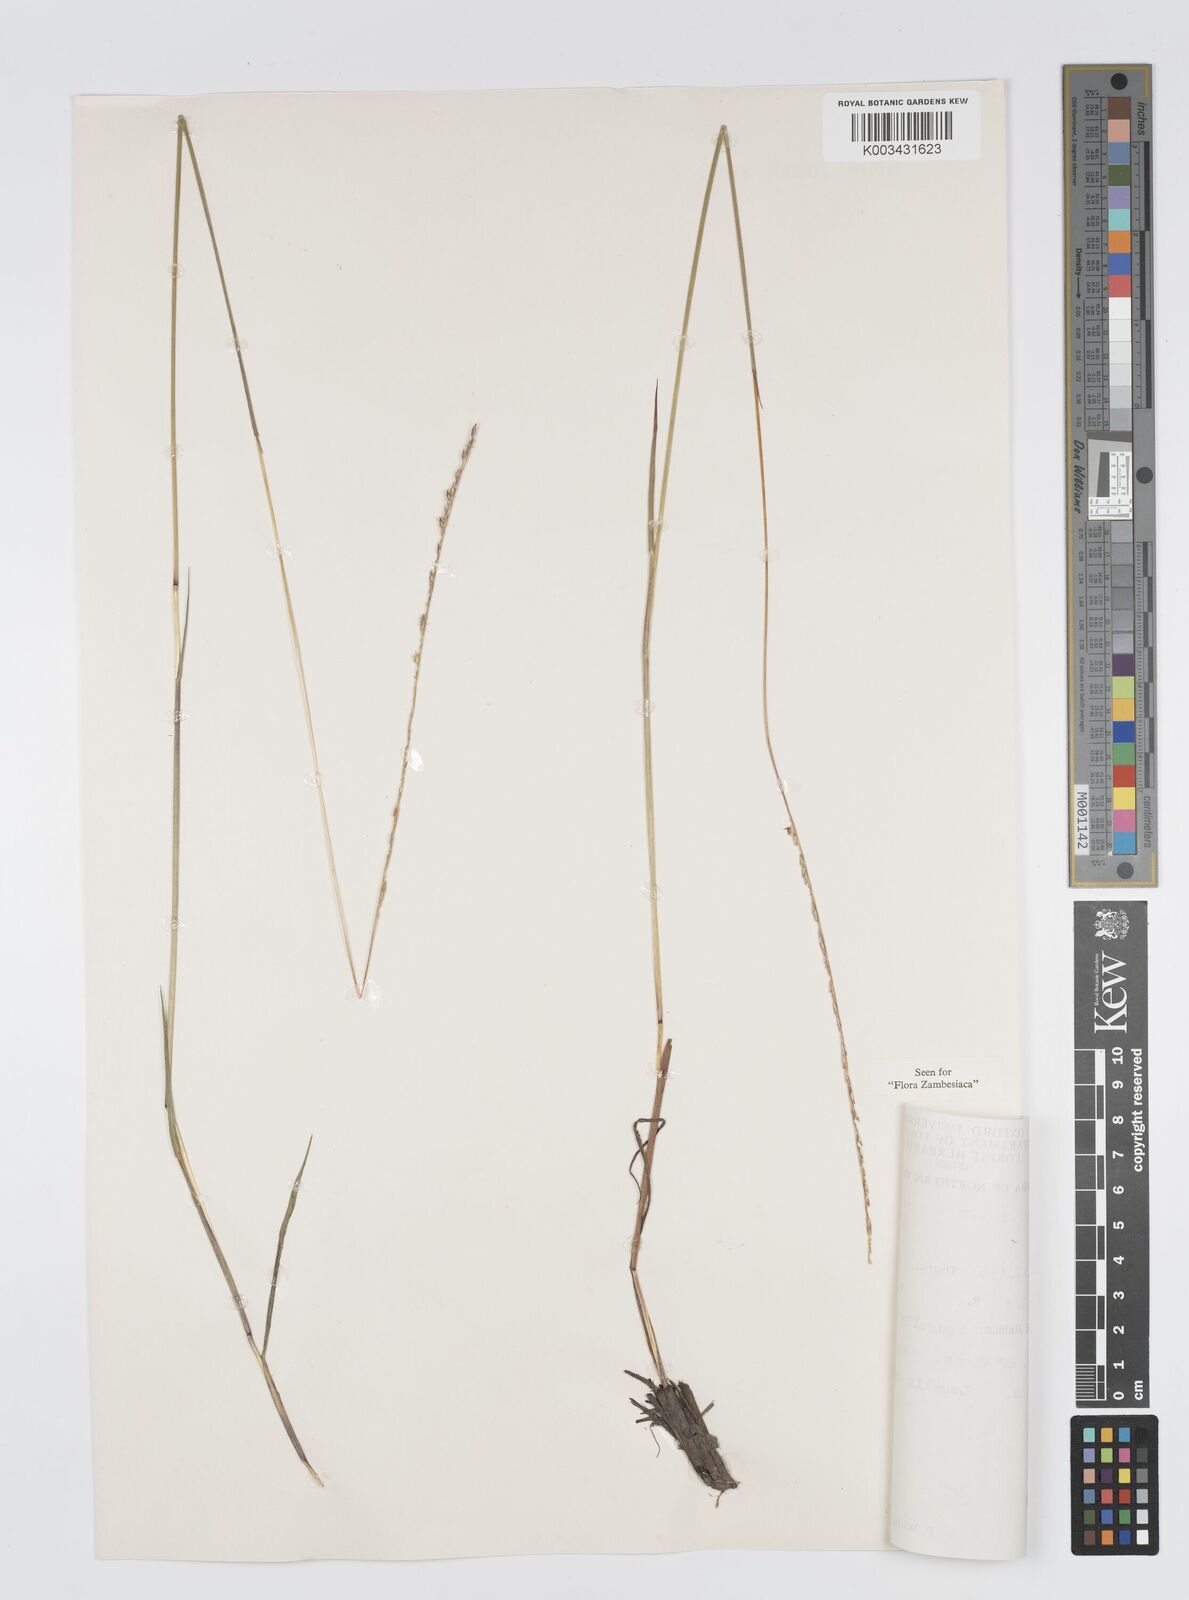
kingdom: Plantae
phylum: Tracheophyta
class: Liliopsida
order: Poales
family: Poaceae
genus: Digitaria
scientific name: Digitaria monodactyla
